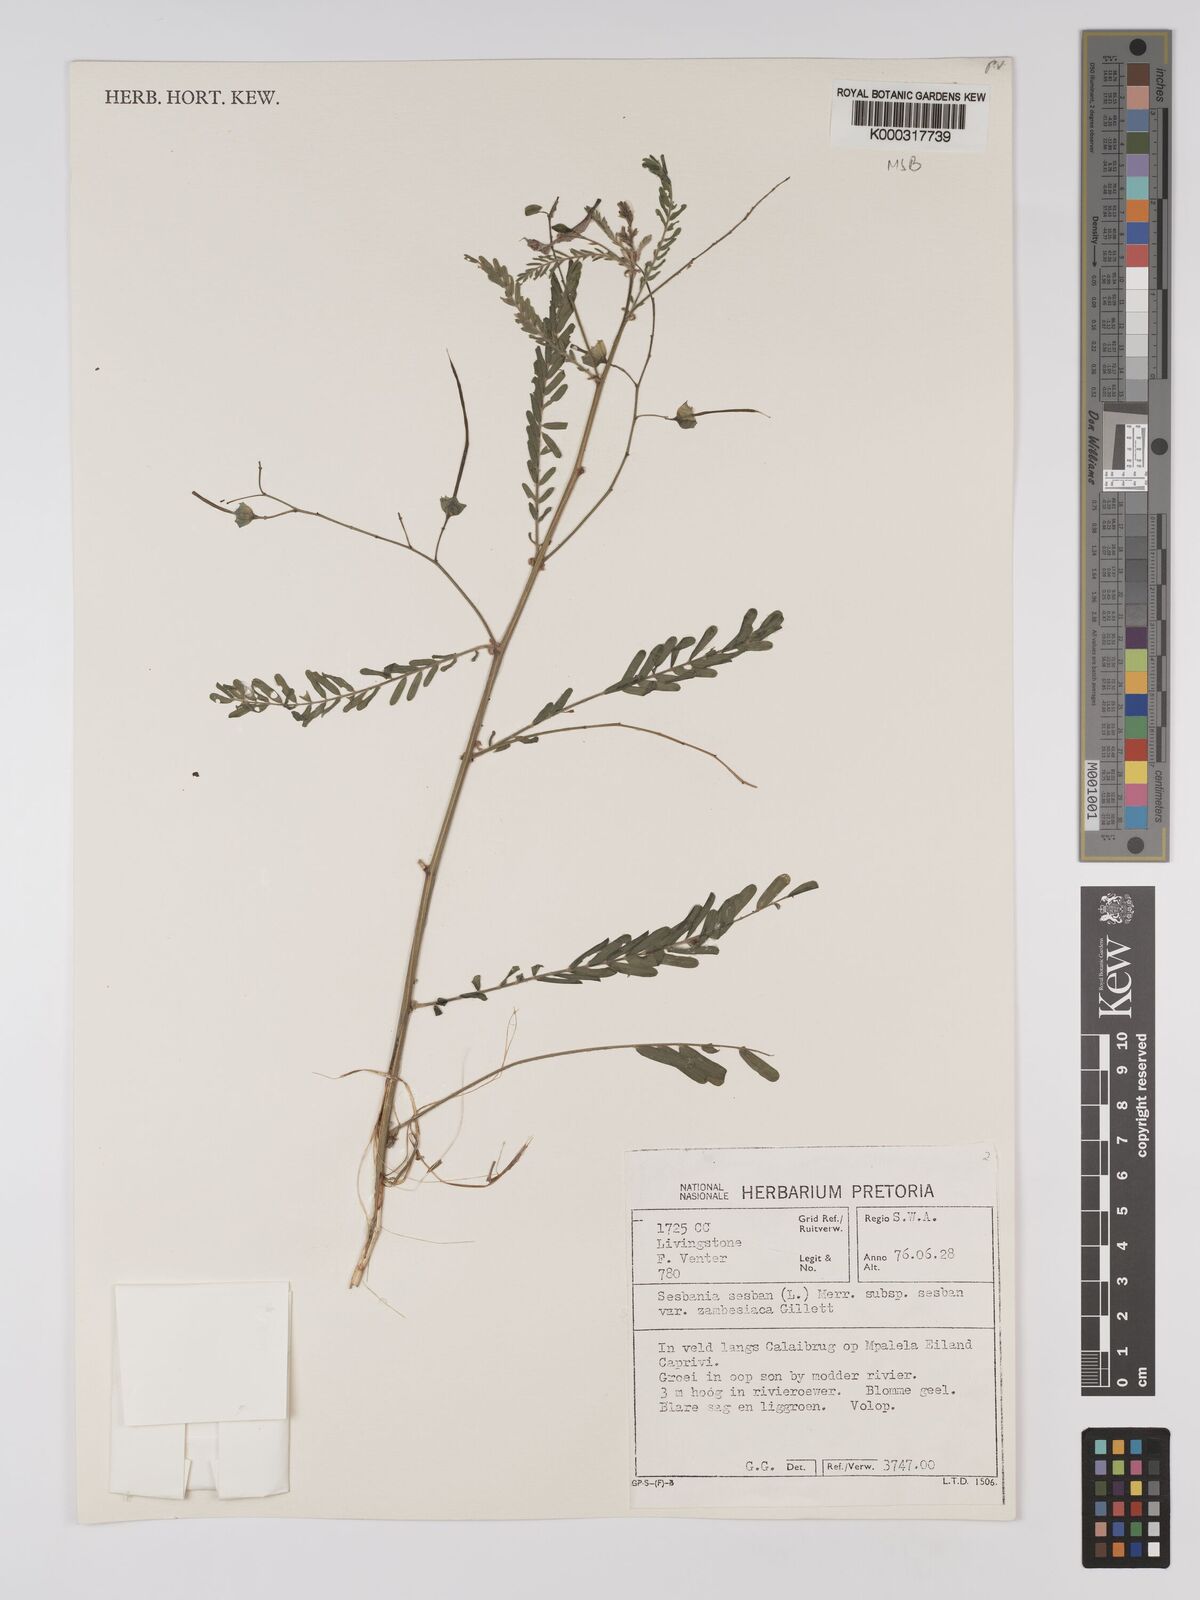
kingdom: Plantae
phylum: Tracheophyta
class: Magnoliopsida
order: Fabales
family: Fabaceae
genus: Sesbania
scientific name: Sesbania sesban
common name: Egyptian sesban
